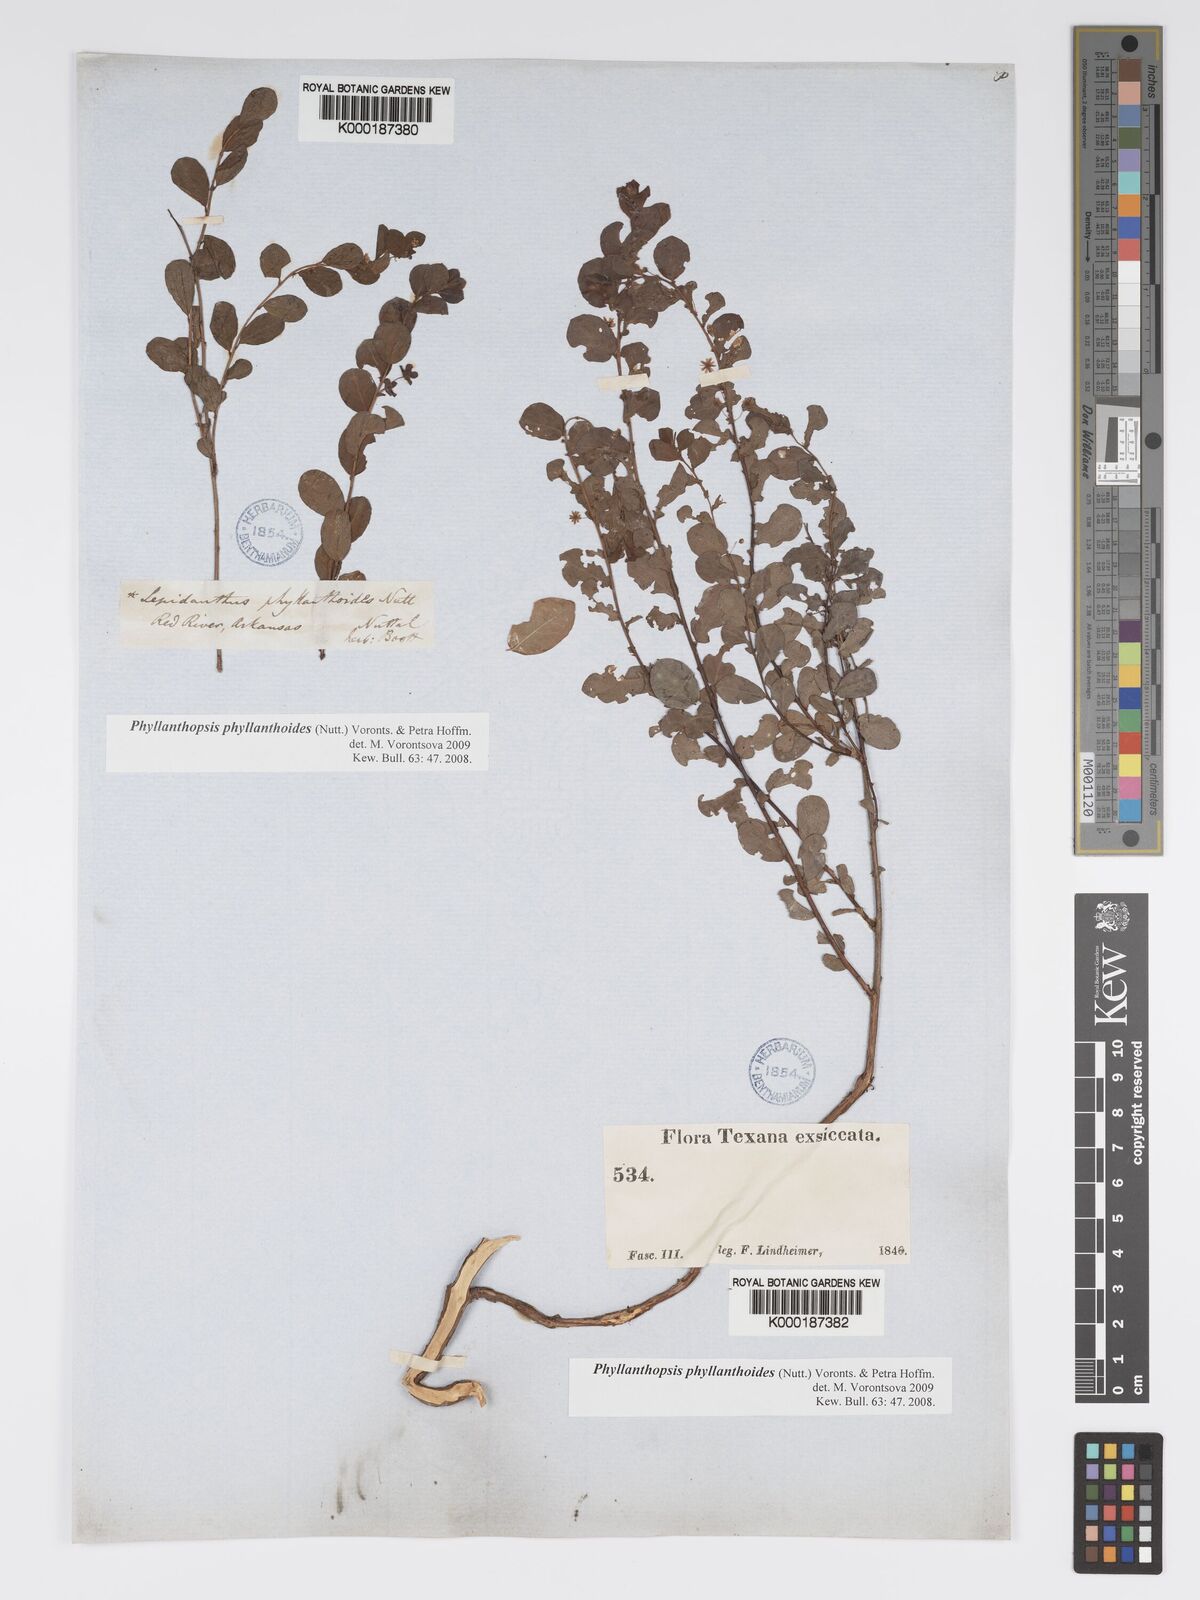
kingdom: Plantae
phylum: Tracheophyta
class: Magnoliopsida
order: Malpighiales
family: Phyllanthaceae
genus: Andrachne
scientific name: Andrachne
